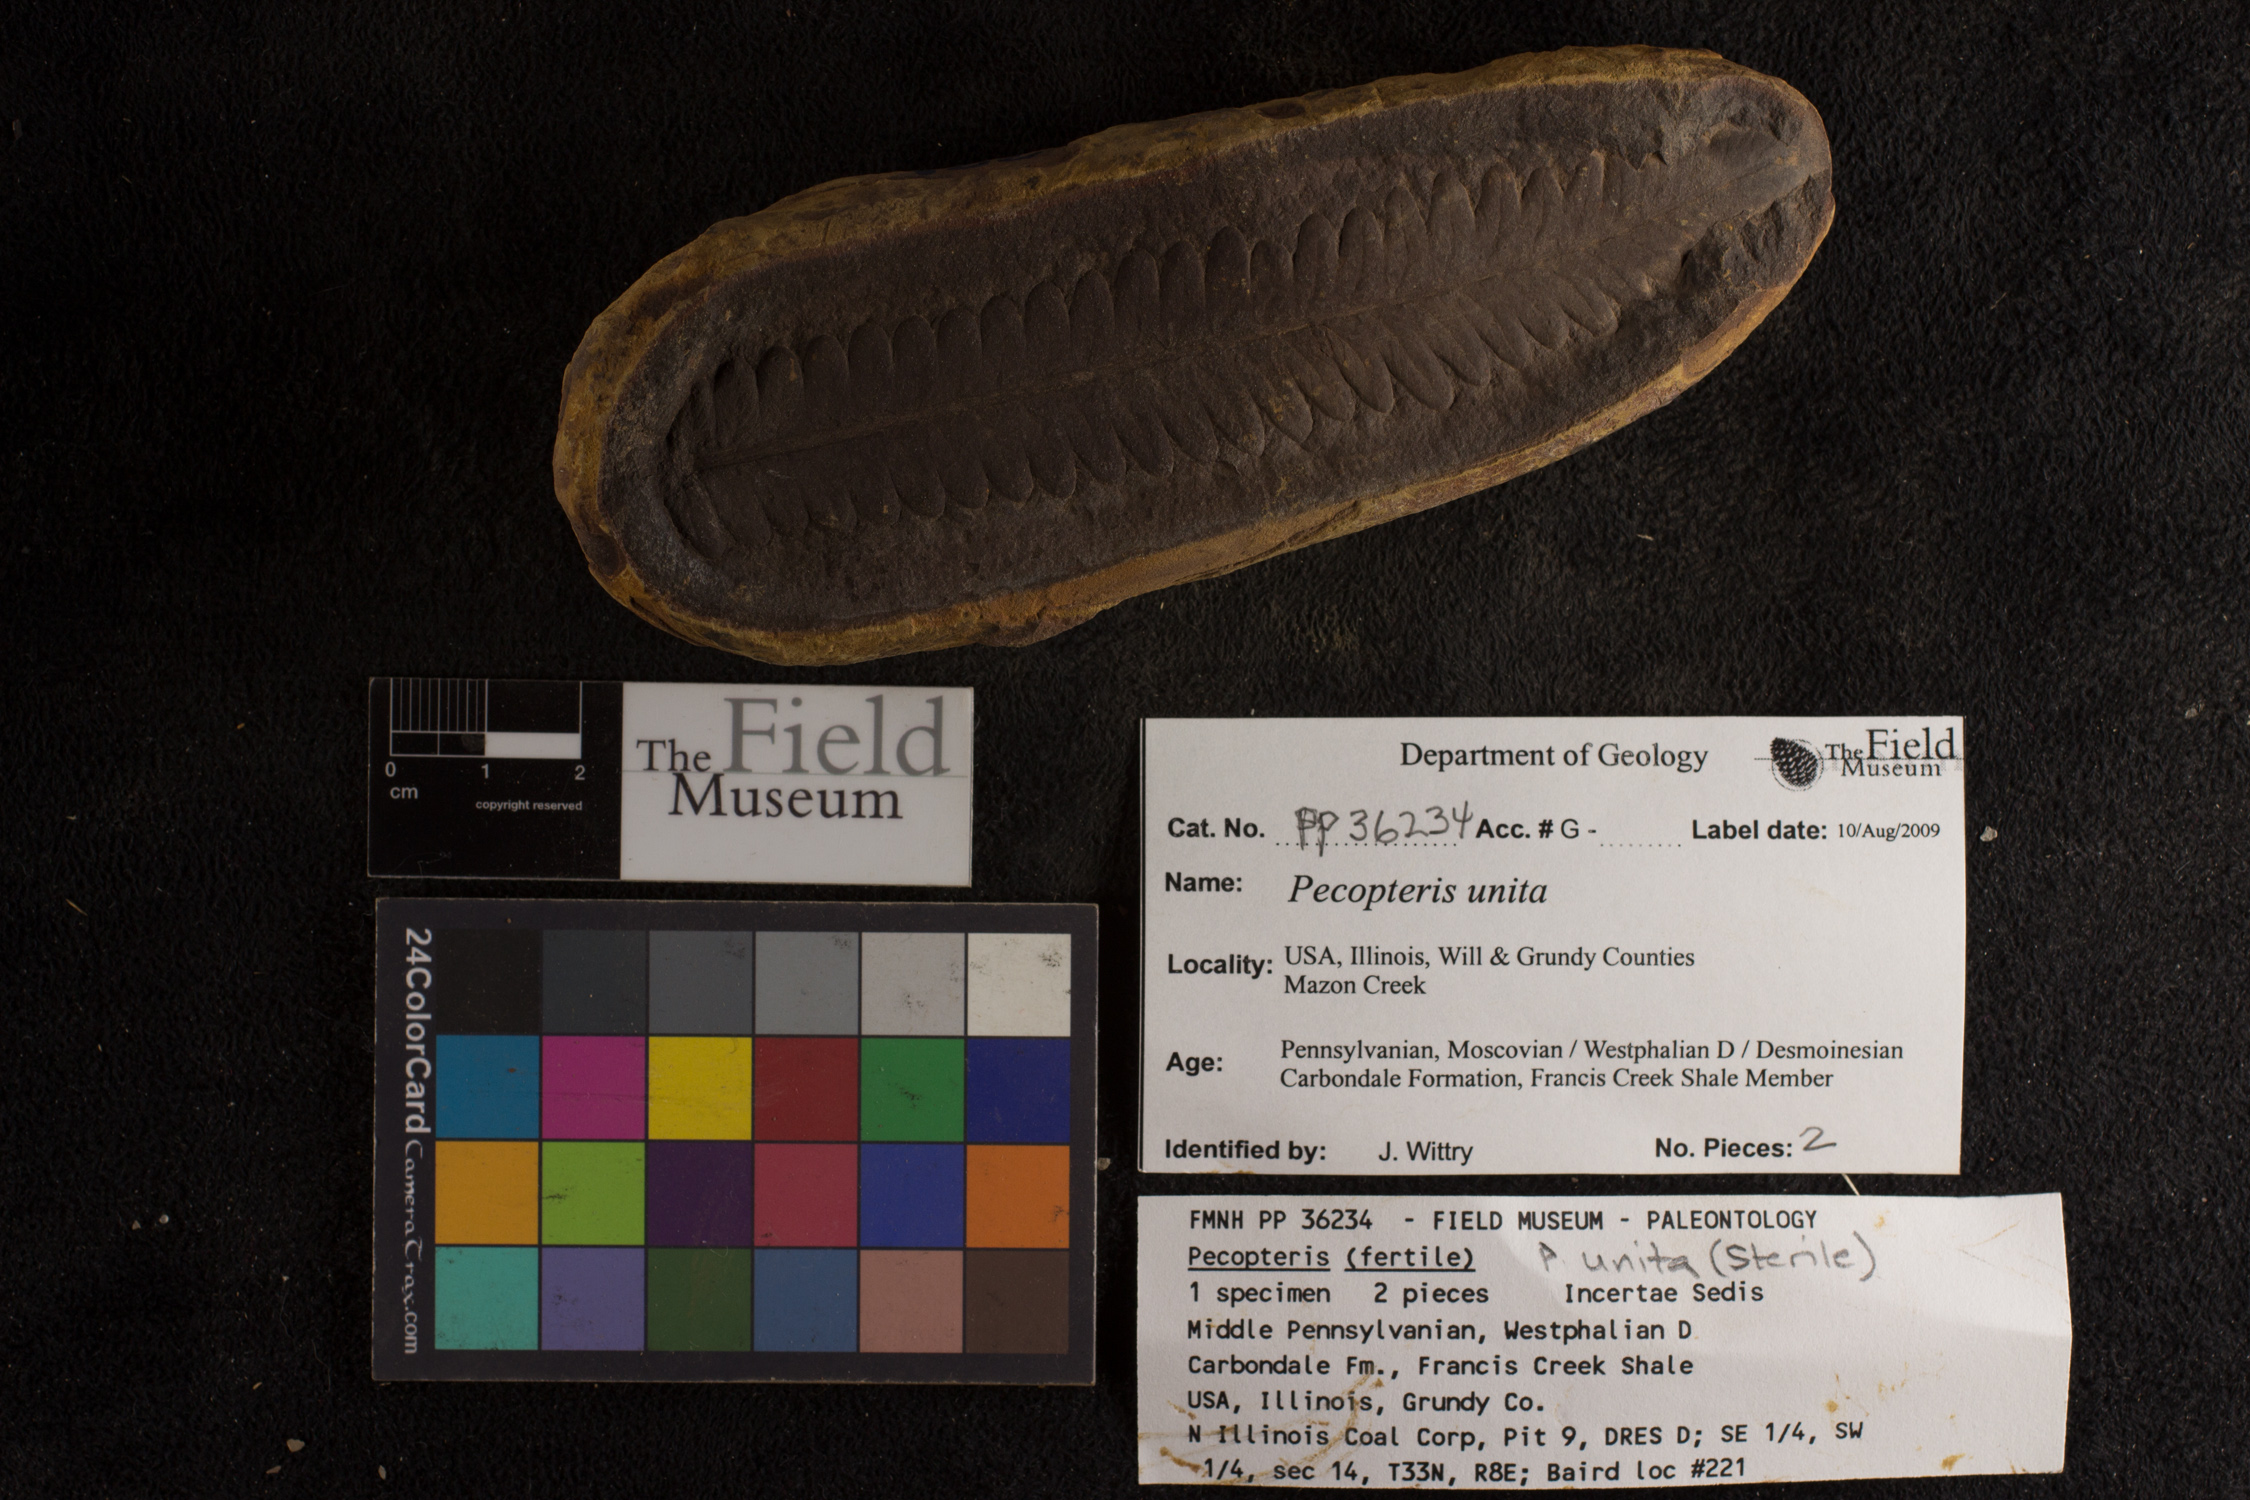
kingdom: Plantae
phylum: Tracheophyta
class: Polypodiopsida
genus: Diplazites
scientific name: Diplazites
